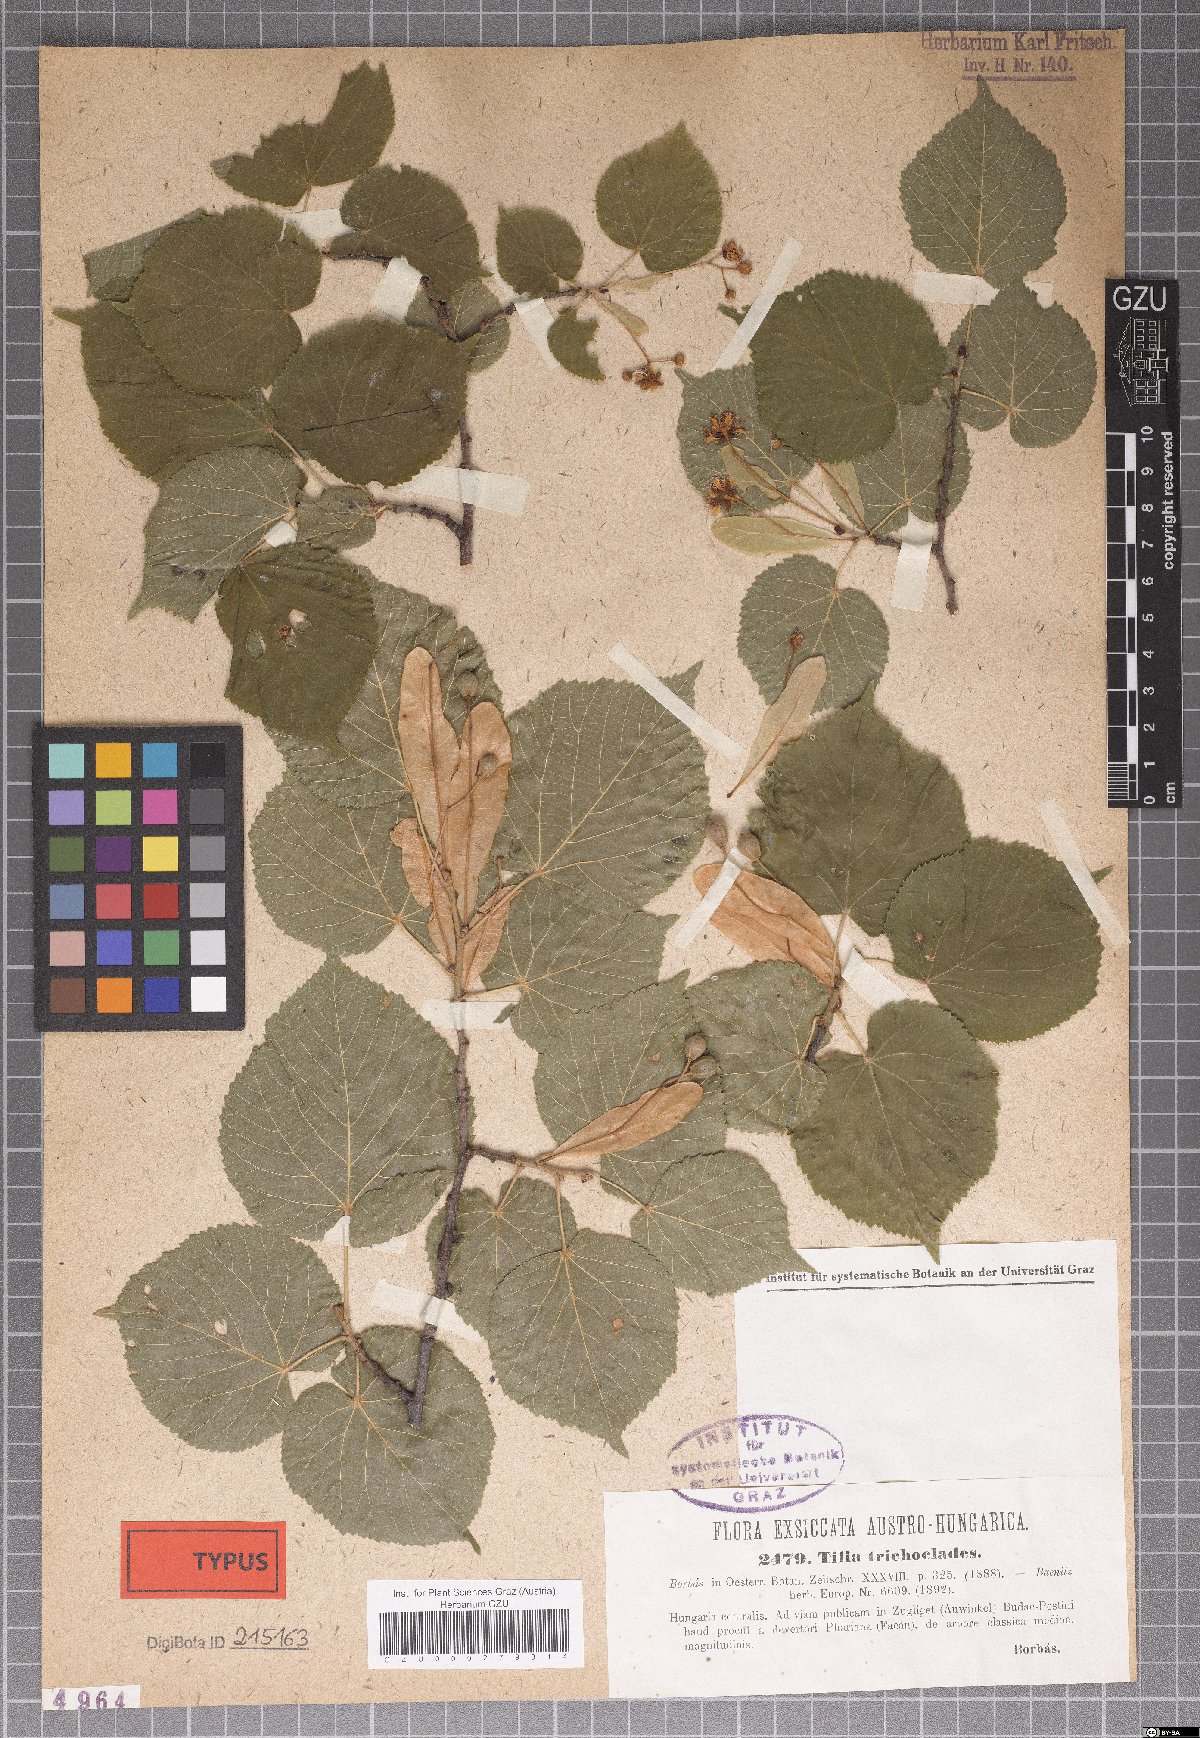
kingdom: Plantae
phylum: Tracheophyta
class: Magnoliopsida
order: Malvales
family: Malvaceae
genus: Tilia
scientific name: Tilia platyphyllos
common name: Large-leaved lime
